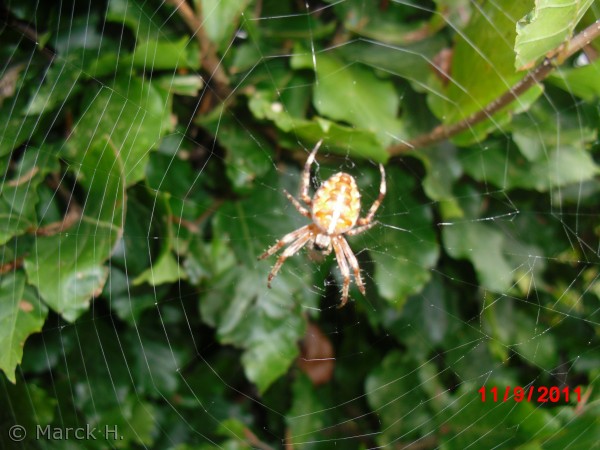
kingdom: Animalia
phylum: Arthropoda
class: Arachnida
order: Araneae
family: Araneidae
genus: Araneus
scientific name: Araneus diadematus
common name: Korsedderkop
